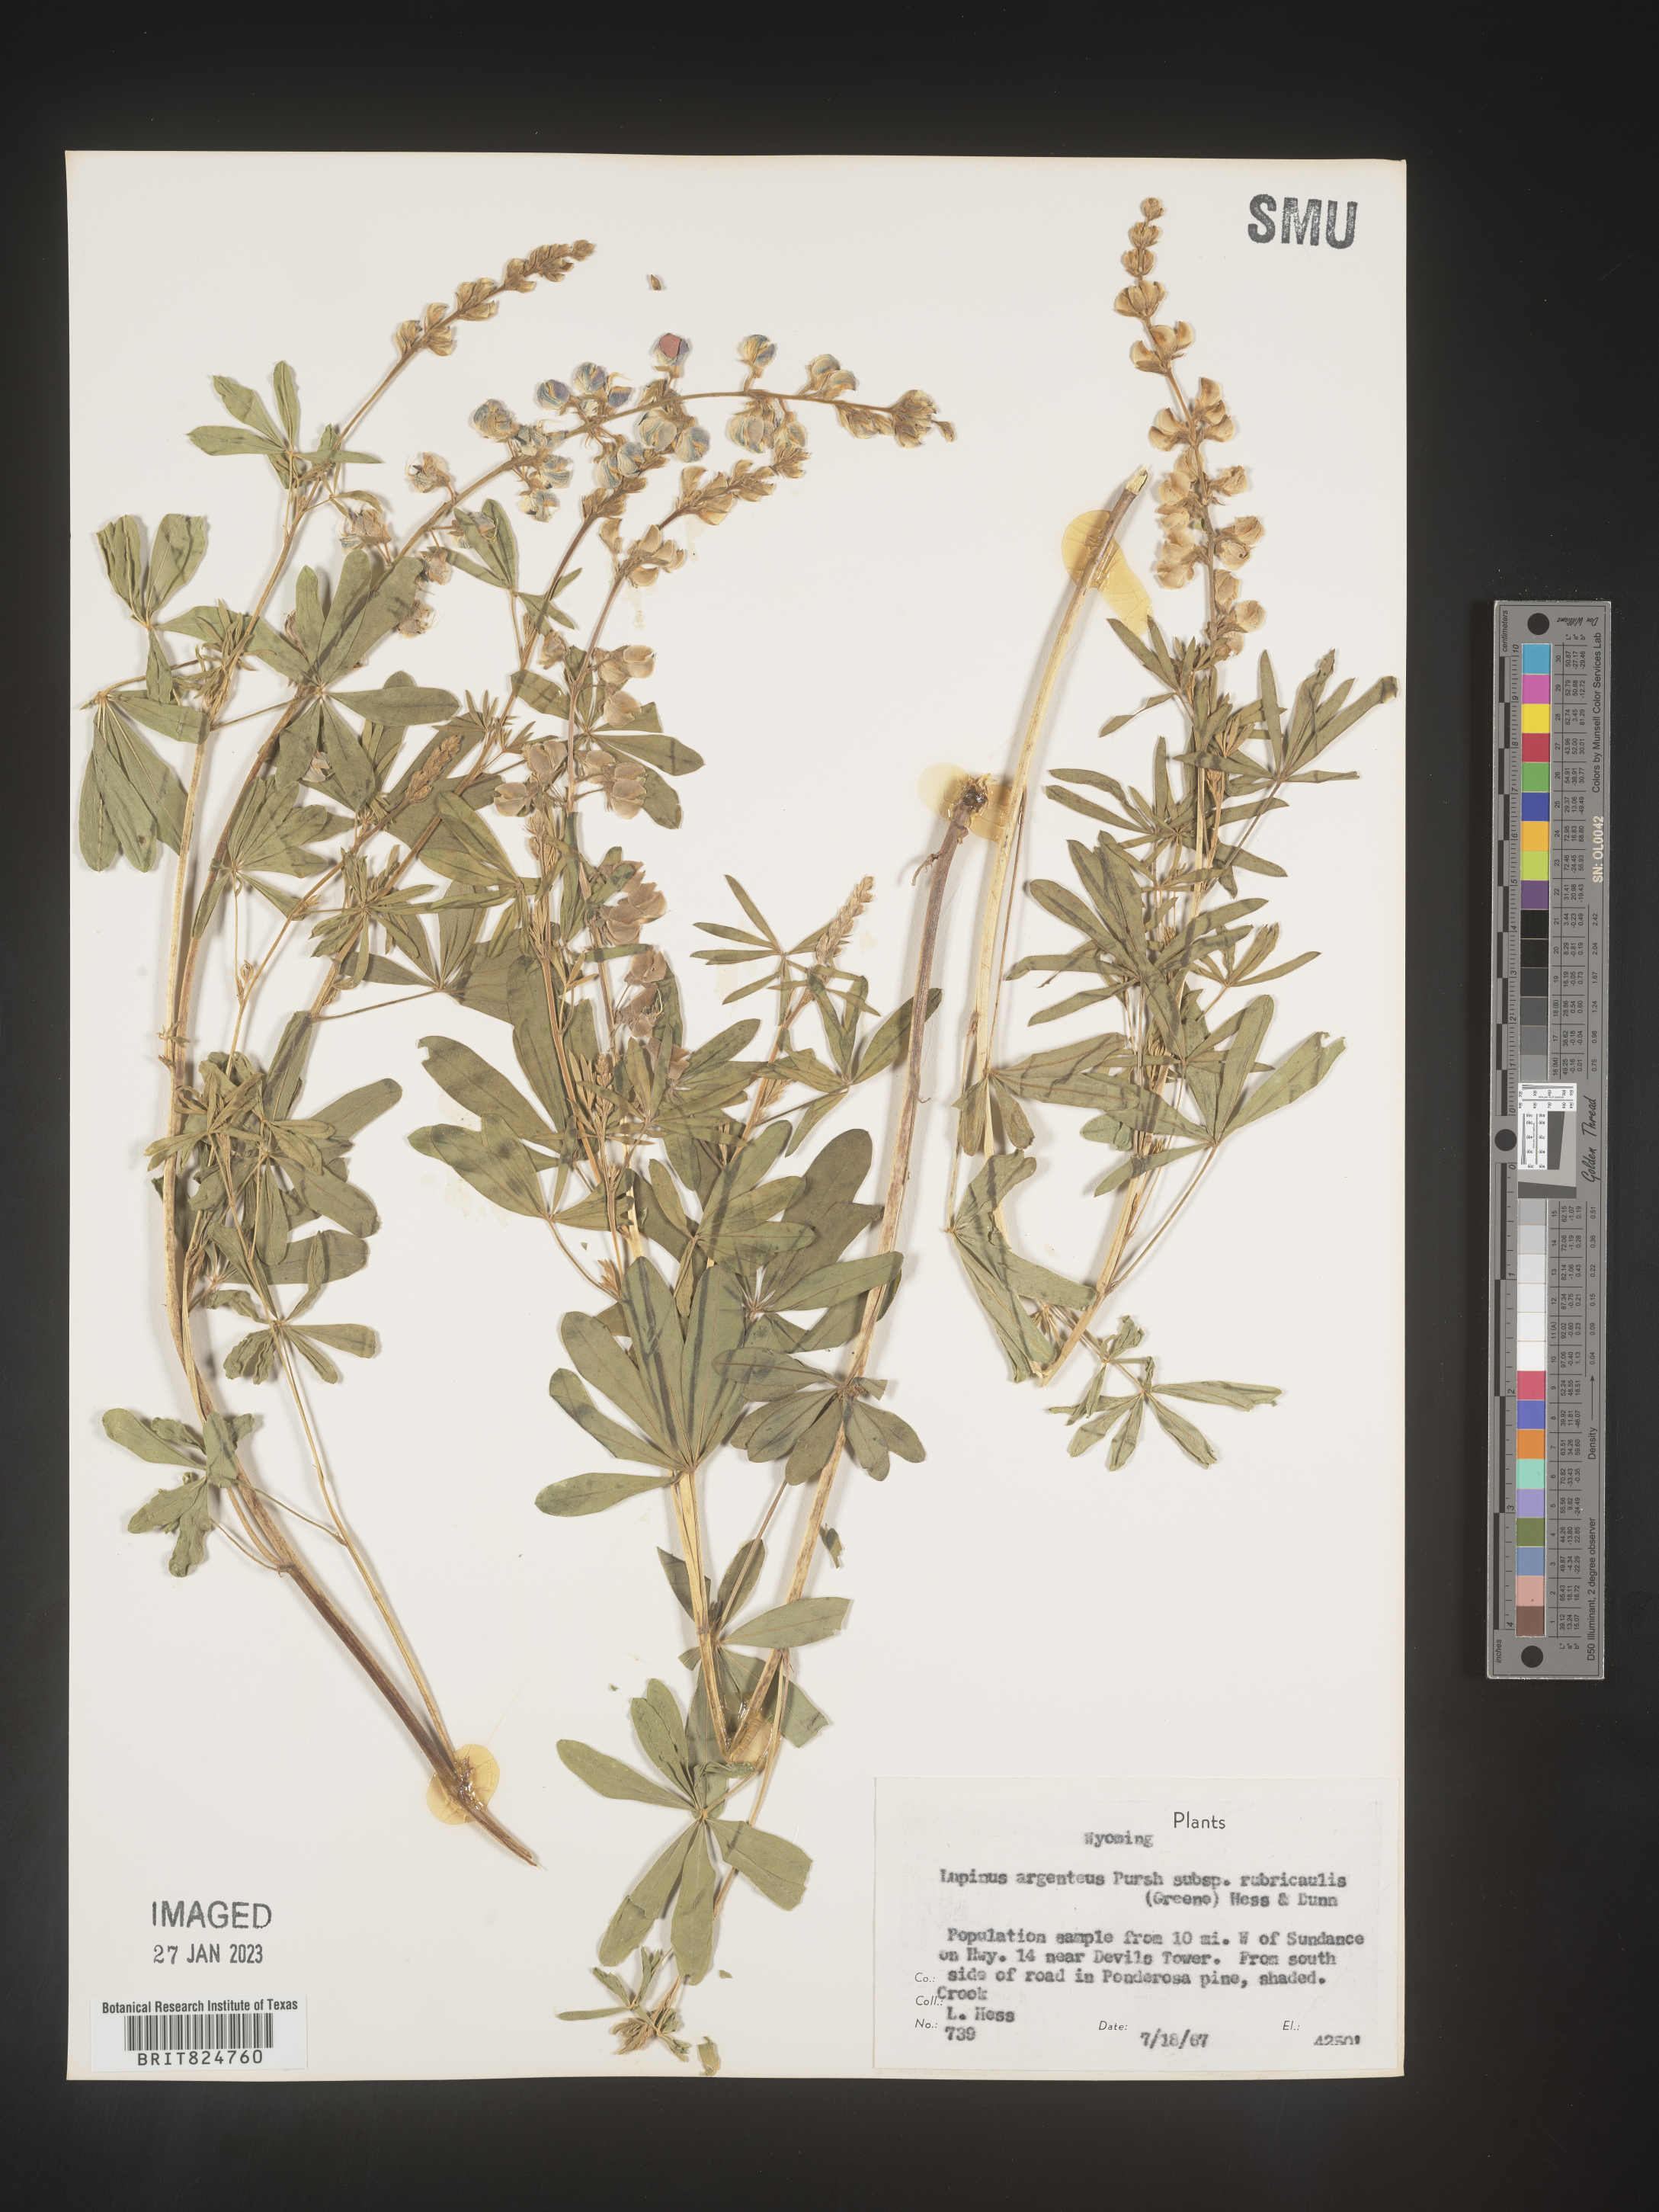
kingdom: Plantae
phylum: Tracheophyta
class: Magnoliopsida
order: Fabales
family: Fabaceae
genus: Lupinus
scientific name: Lupinus argenteus
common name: Silvery lupine
